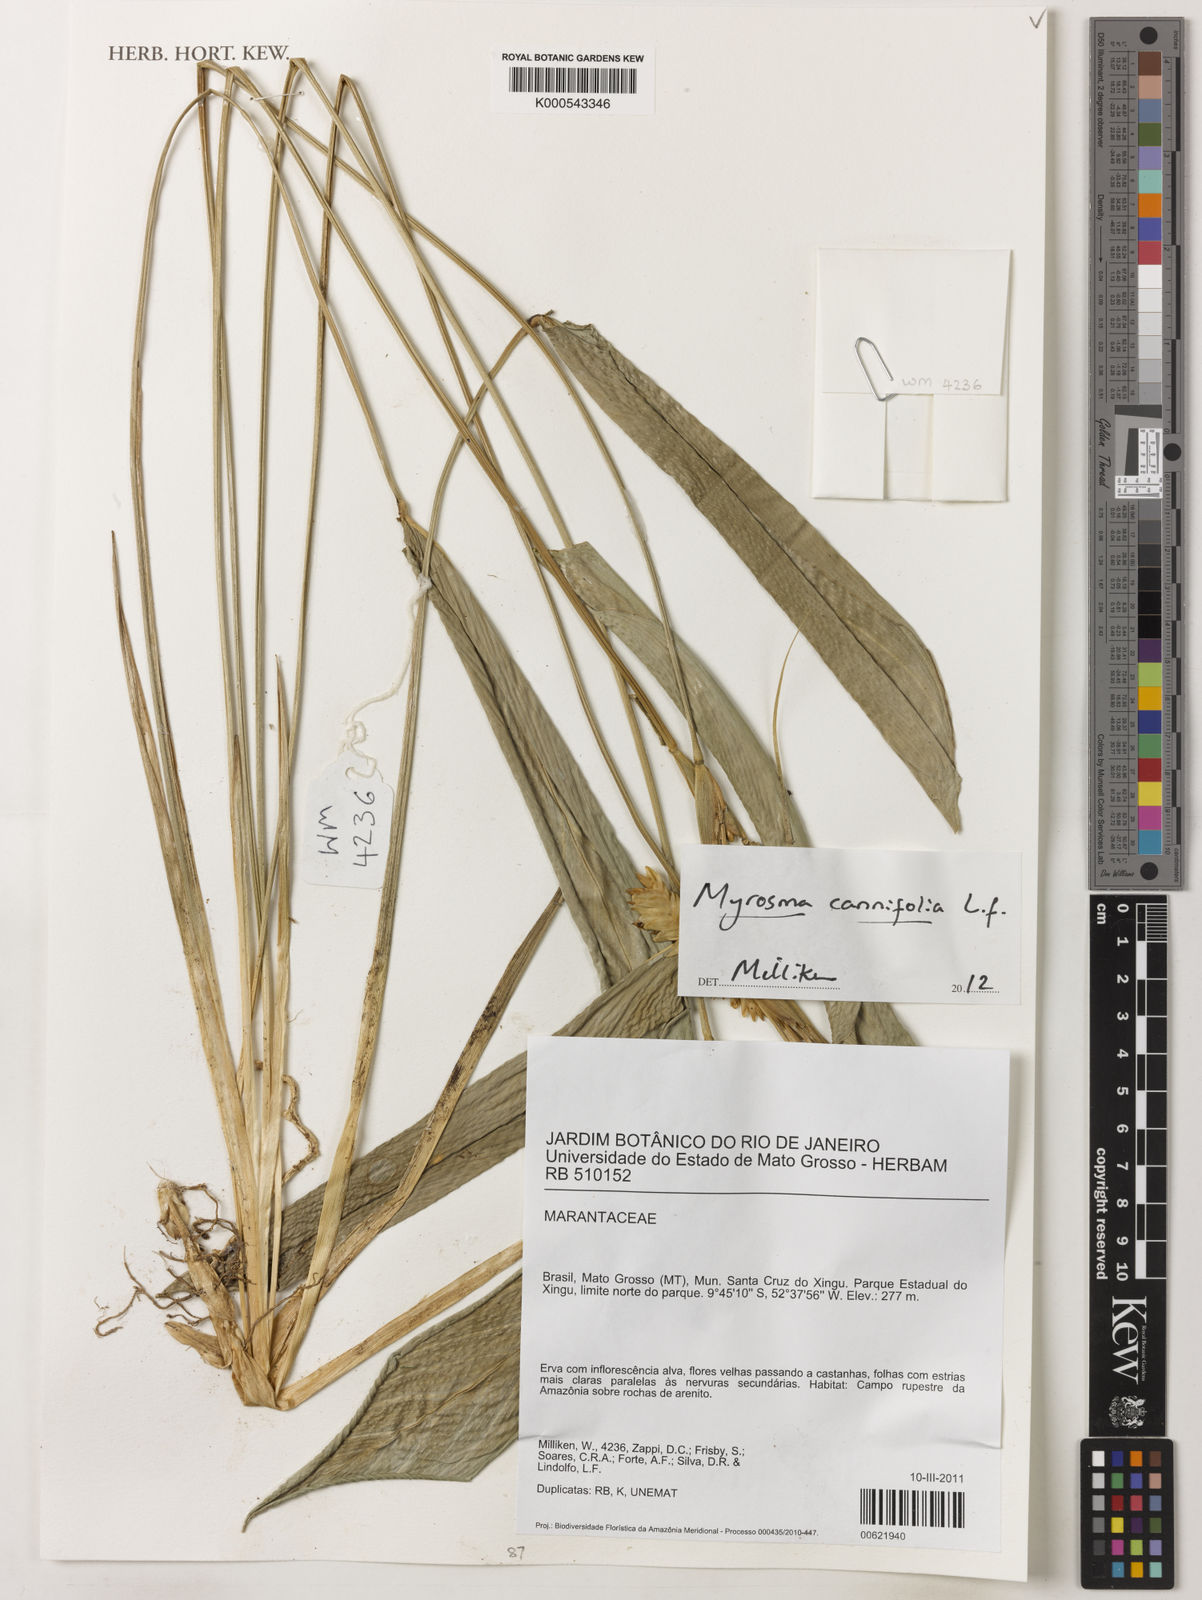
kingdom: Plantae
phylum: Tracheophyta
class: Liliopsida
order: Zingiberales
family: Marantaceae
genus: Myrosma
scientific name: Myrosma cannifolia
